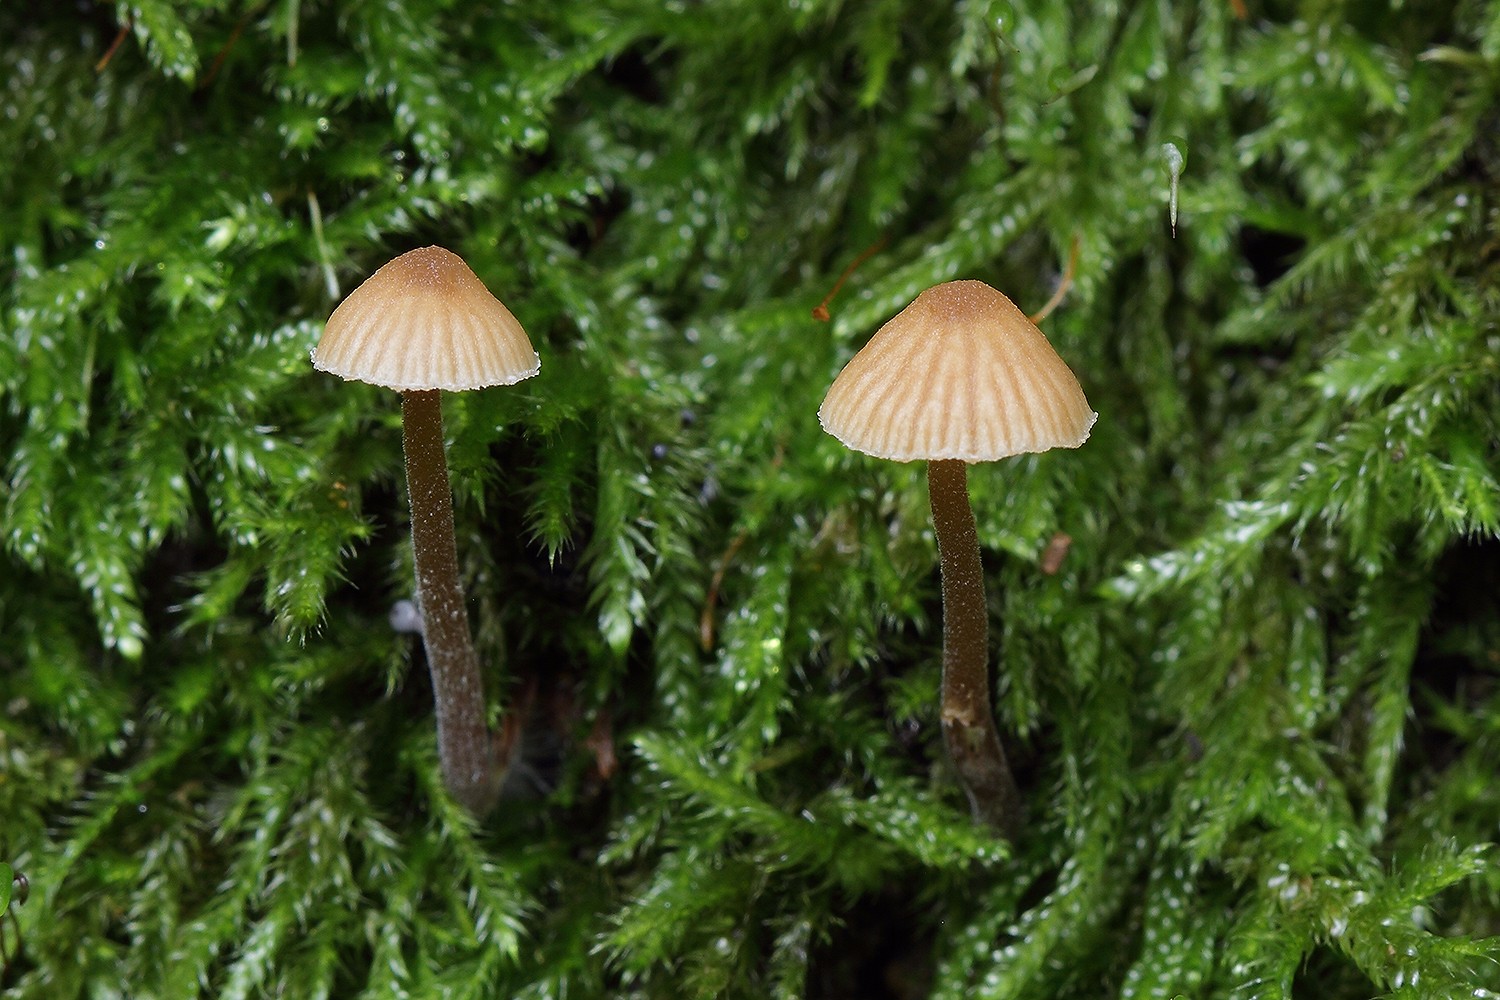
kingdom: Fungi
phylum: Basidiomycota
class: Agaricomycetes
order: Agaricales
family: Hymenogastraceae
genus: Galerina
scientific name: Galerina vittiformis
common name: Hairy leg bell
